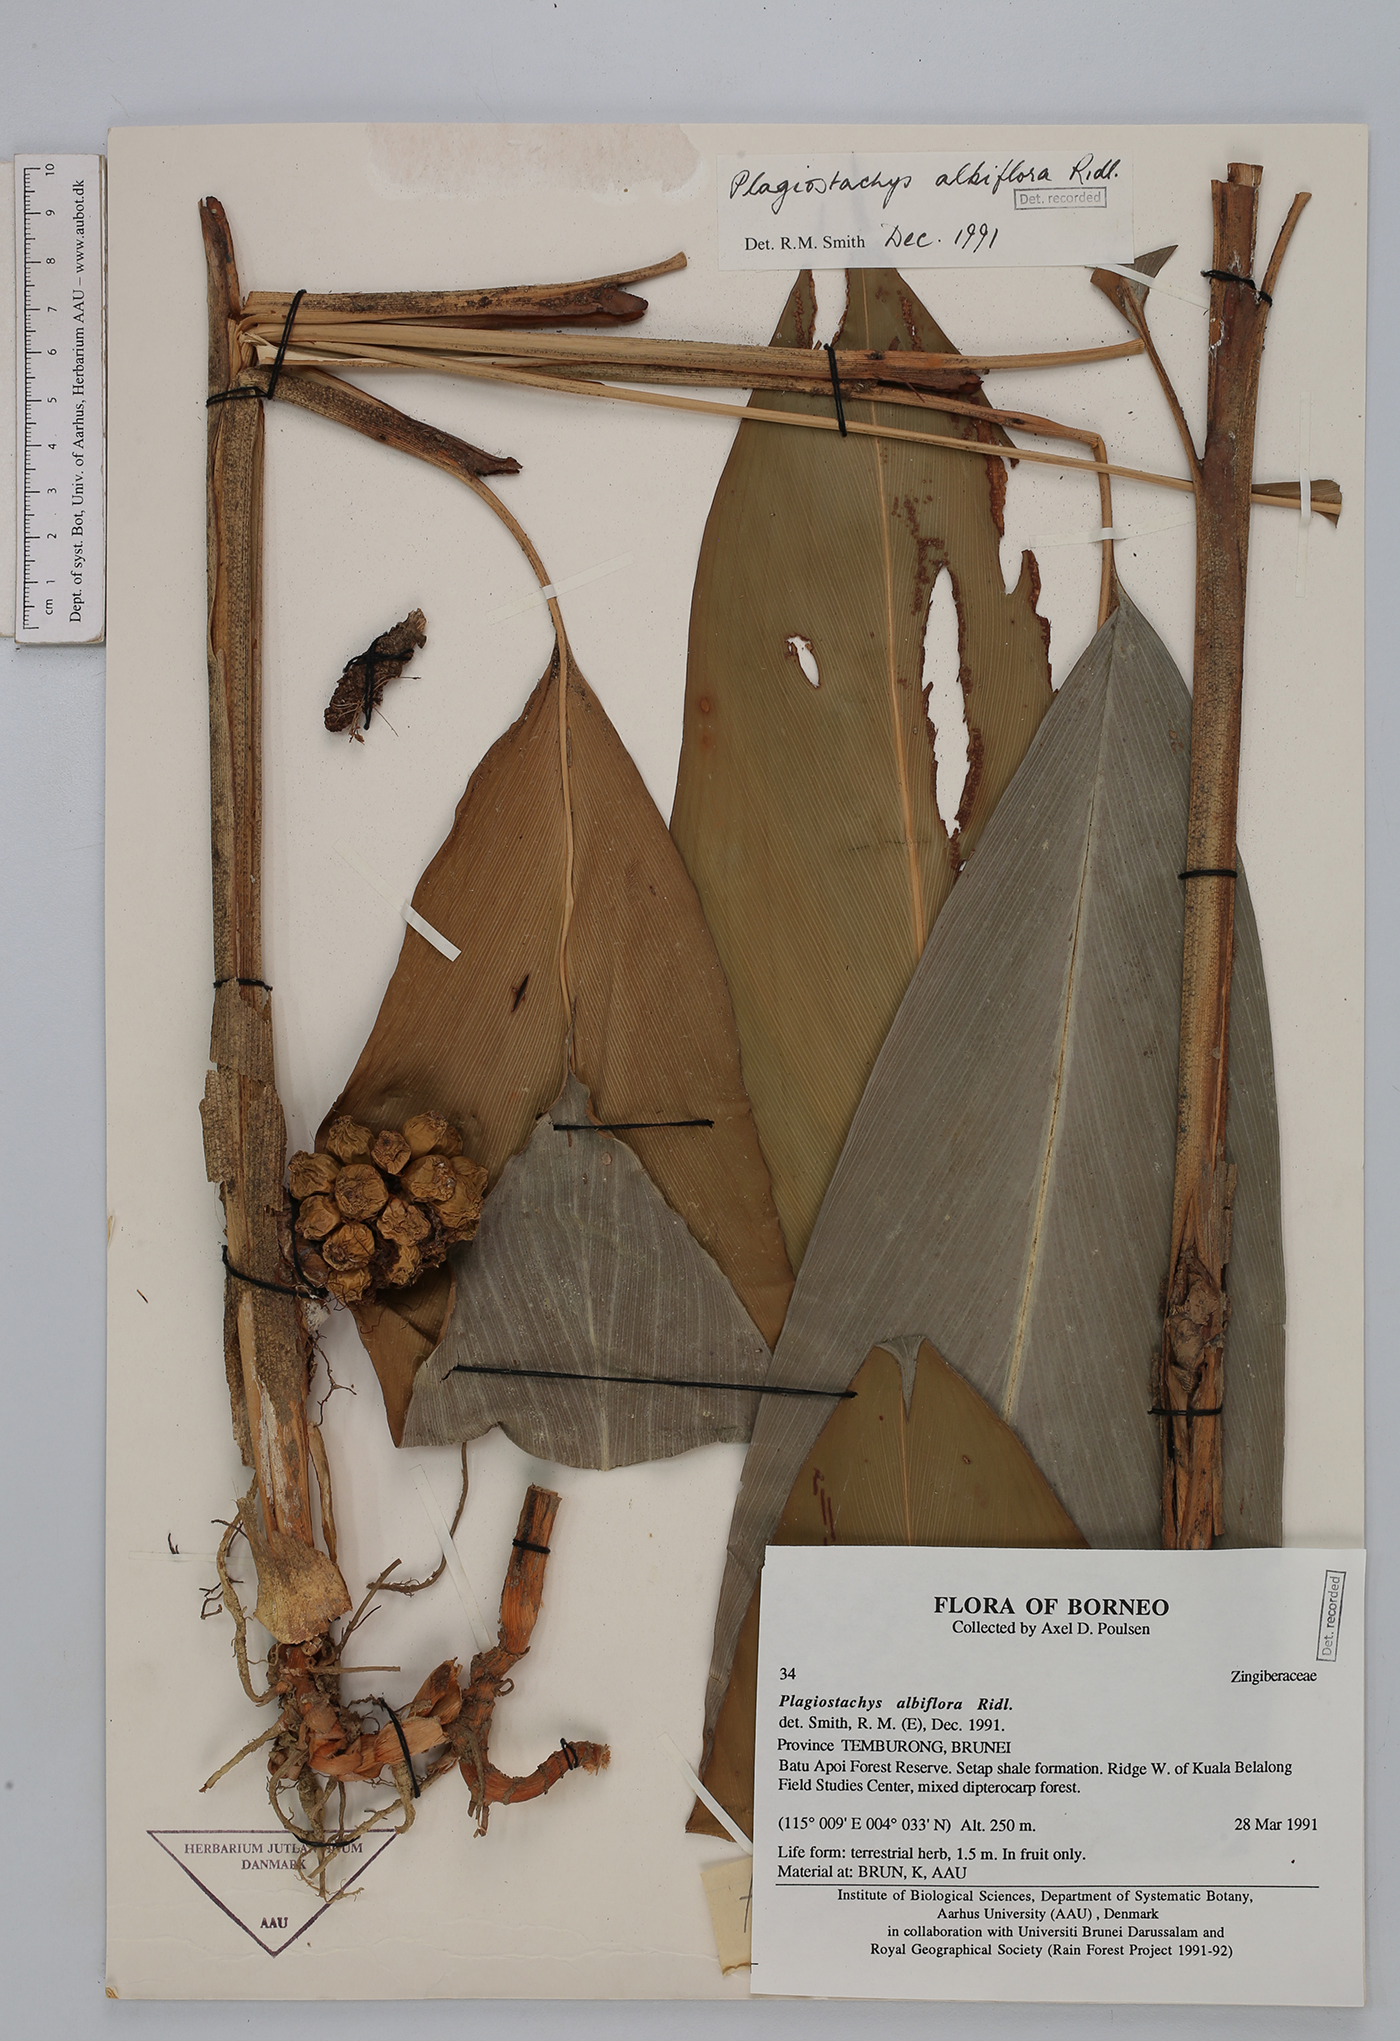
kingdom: Plantae
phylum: Tracheophyta
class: Liliopsida
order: Zingiberales
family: Zingiberaceae
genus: Plagiostachys
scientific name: Plagiostachys albiflora
